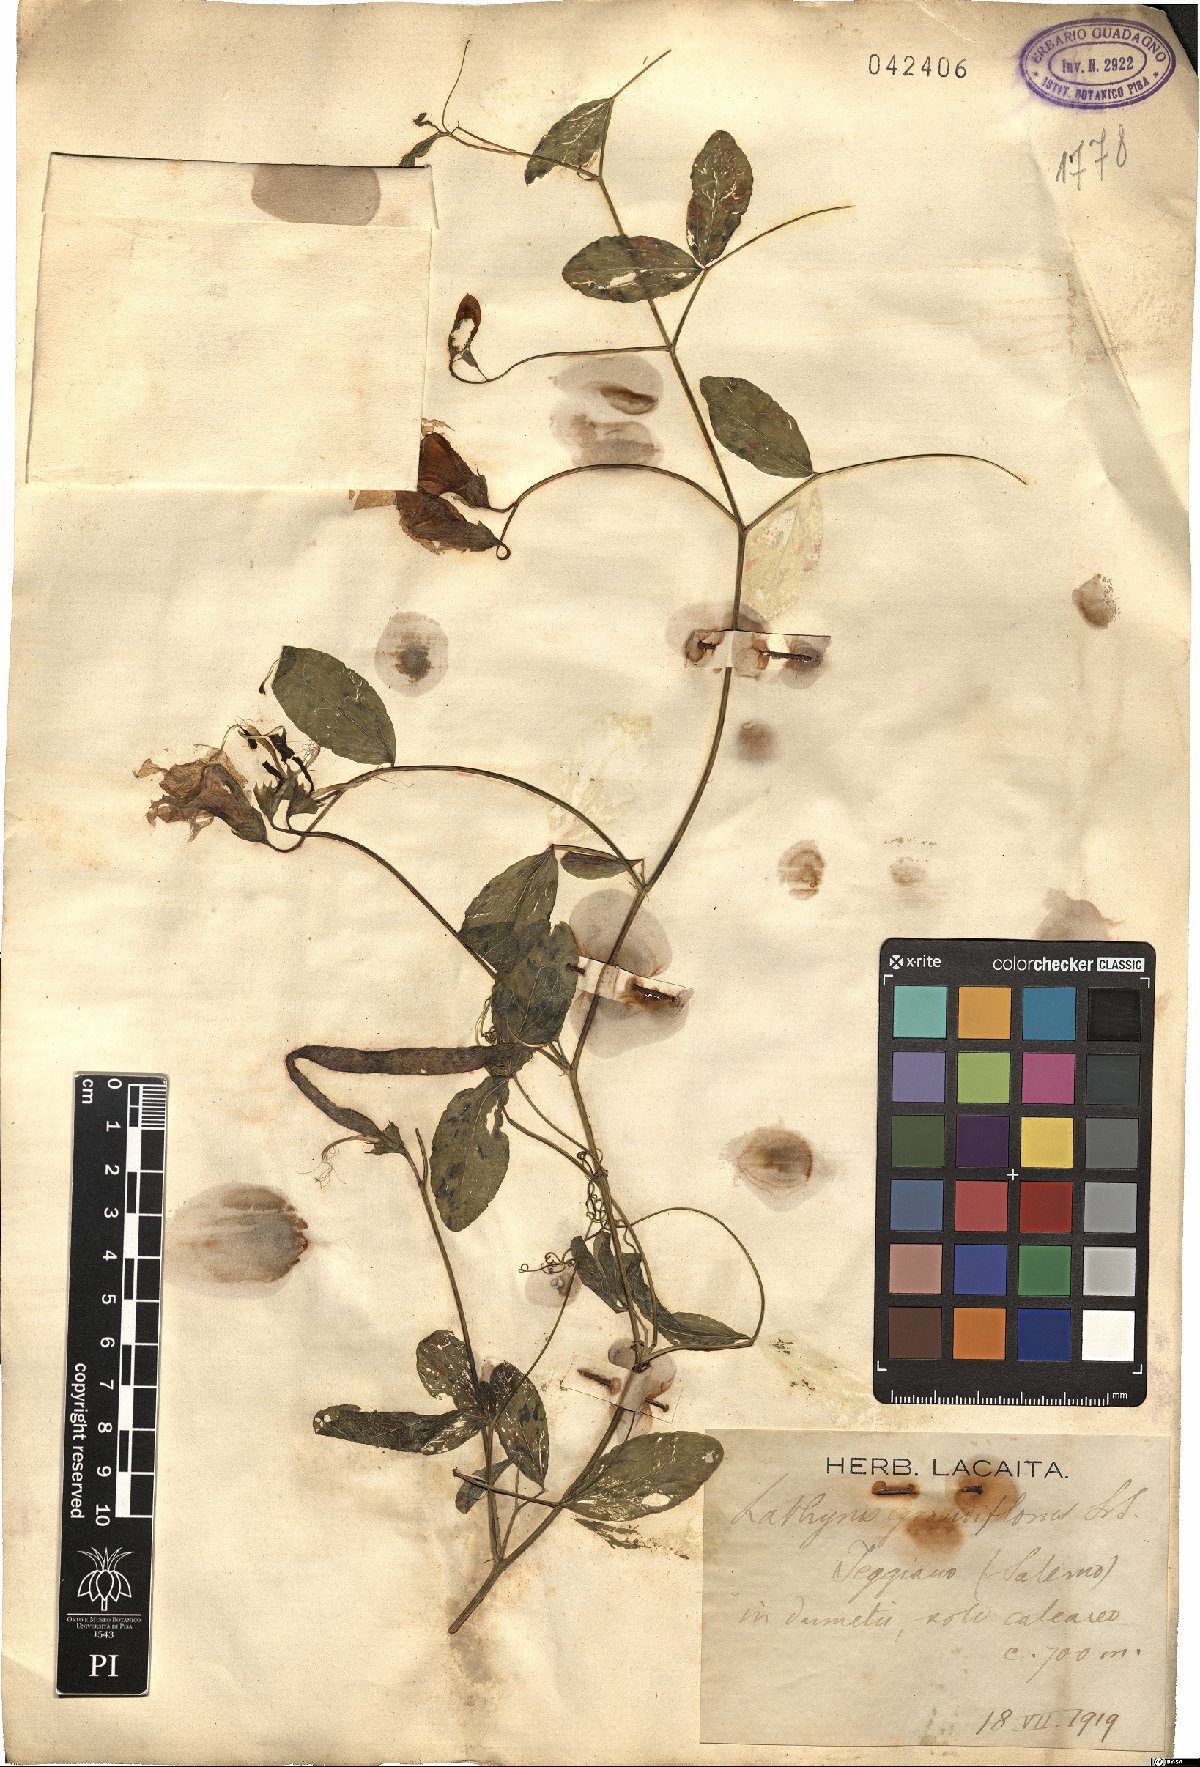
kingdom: Plantae
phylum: Tracheophyta
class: Magnoliopsida
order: Fabales
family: Fabaceae
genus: Lathyrus
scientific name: Lathyrus grandiflorus
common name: Two-flowered everlasting-pea
